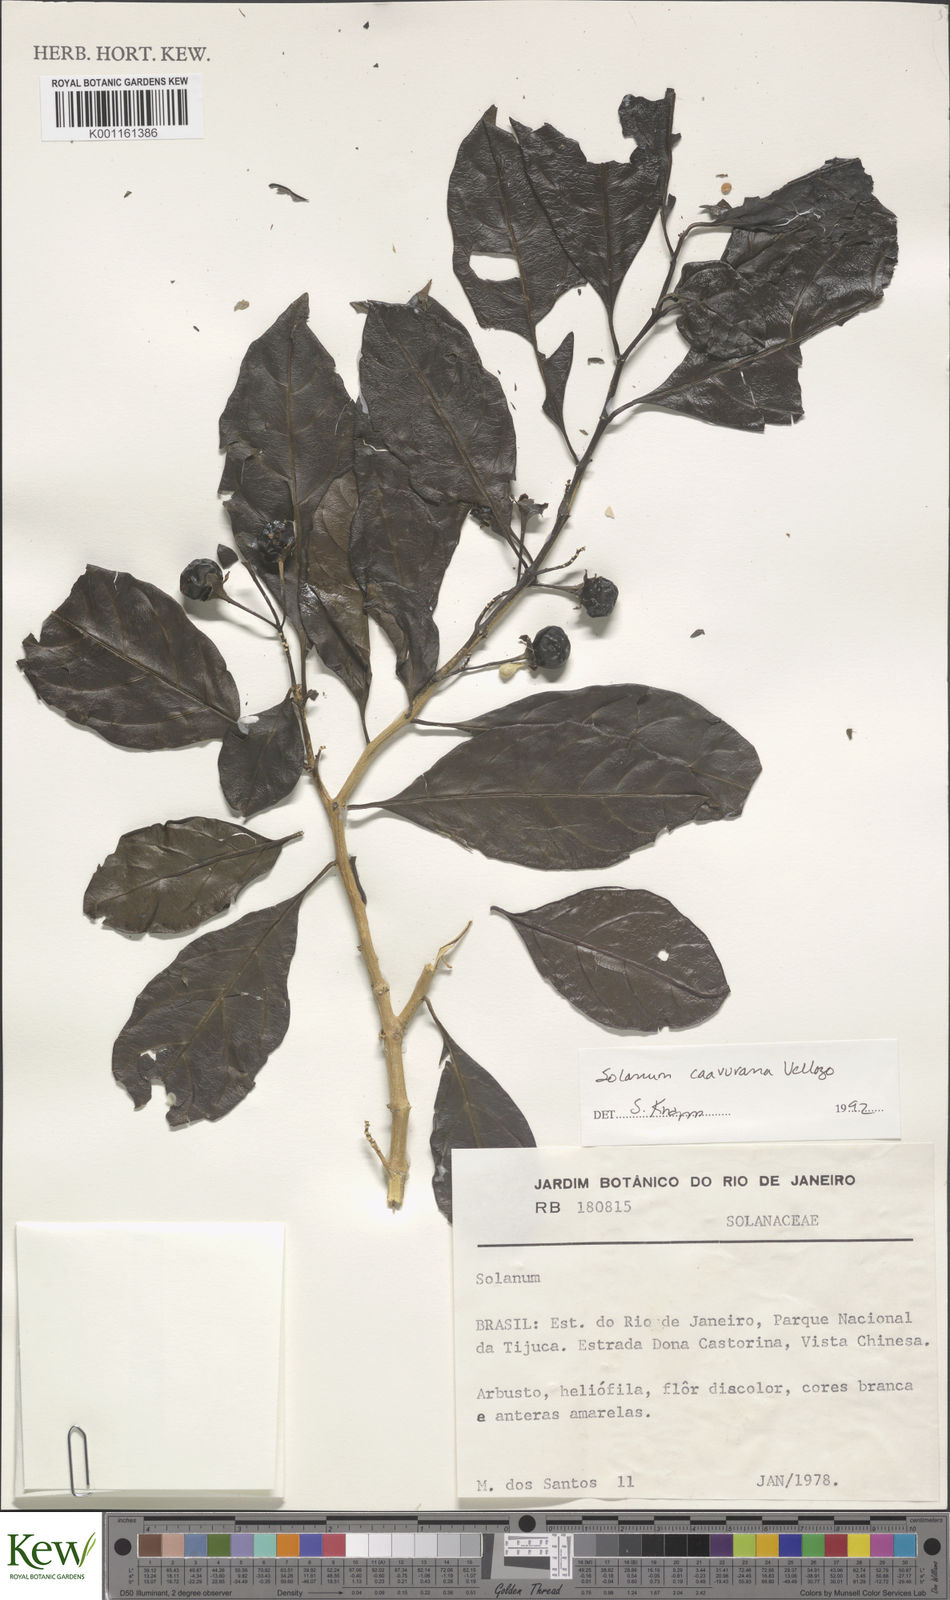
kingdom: Plantae
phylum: Tracheophyta
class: Magnoliopsida
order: Solanales
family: Solanaceae
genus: Solanum
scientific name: Solanum caavurana
